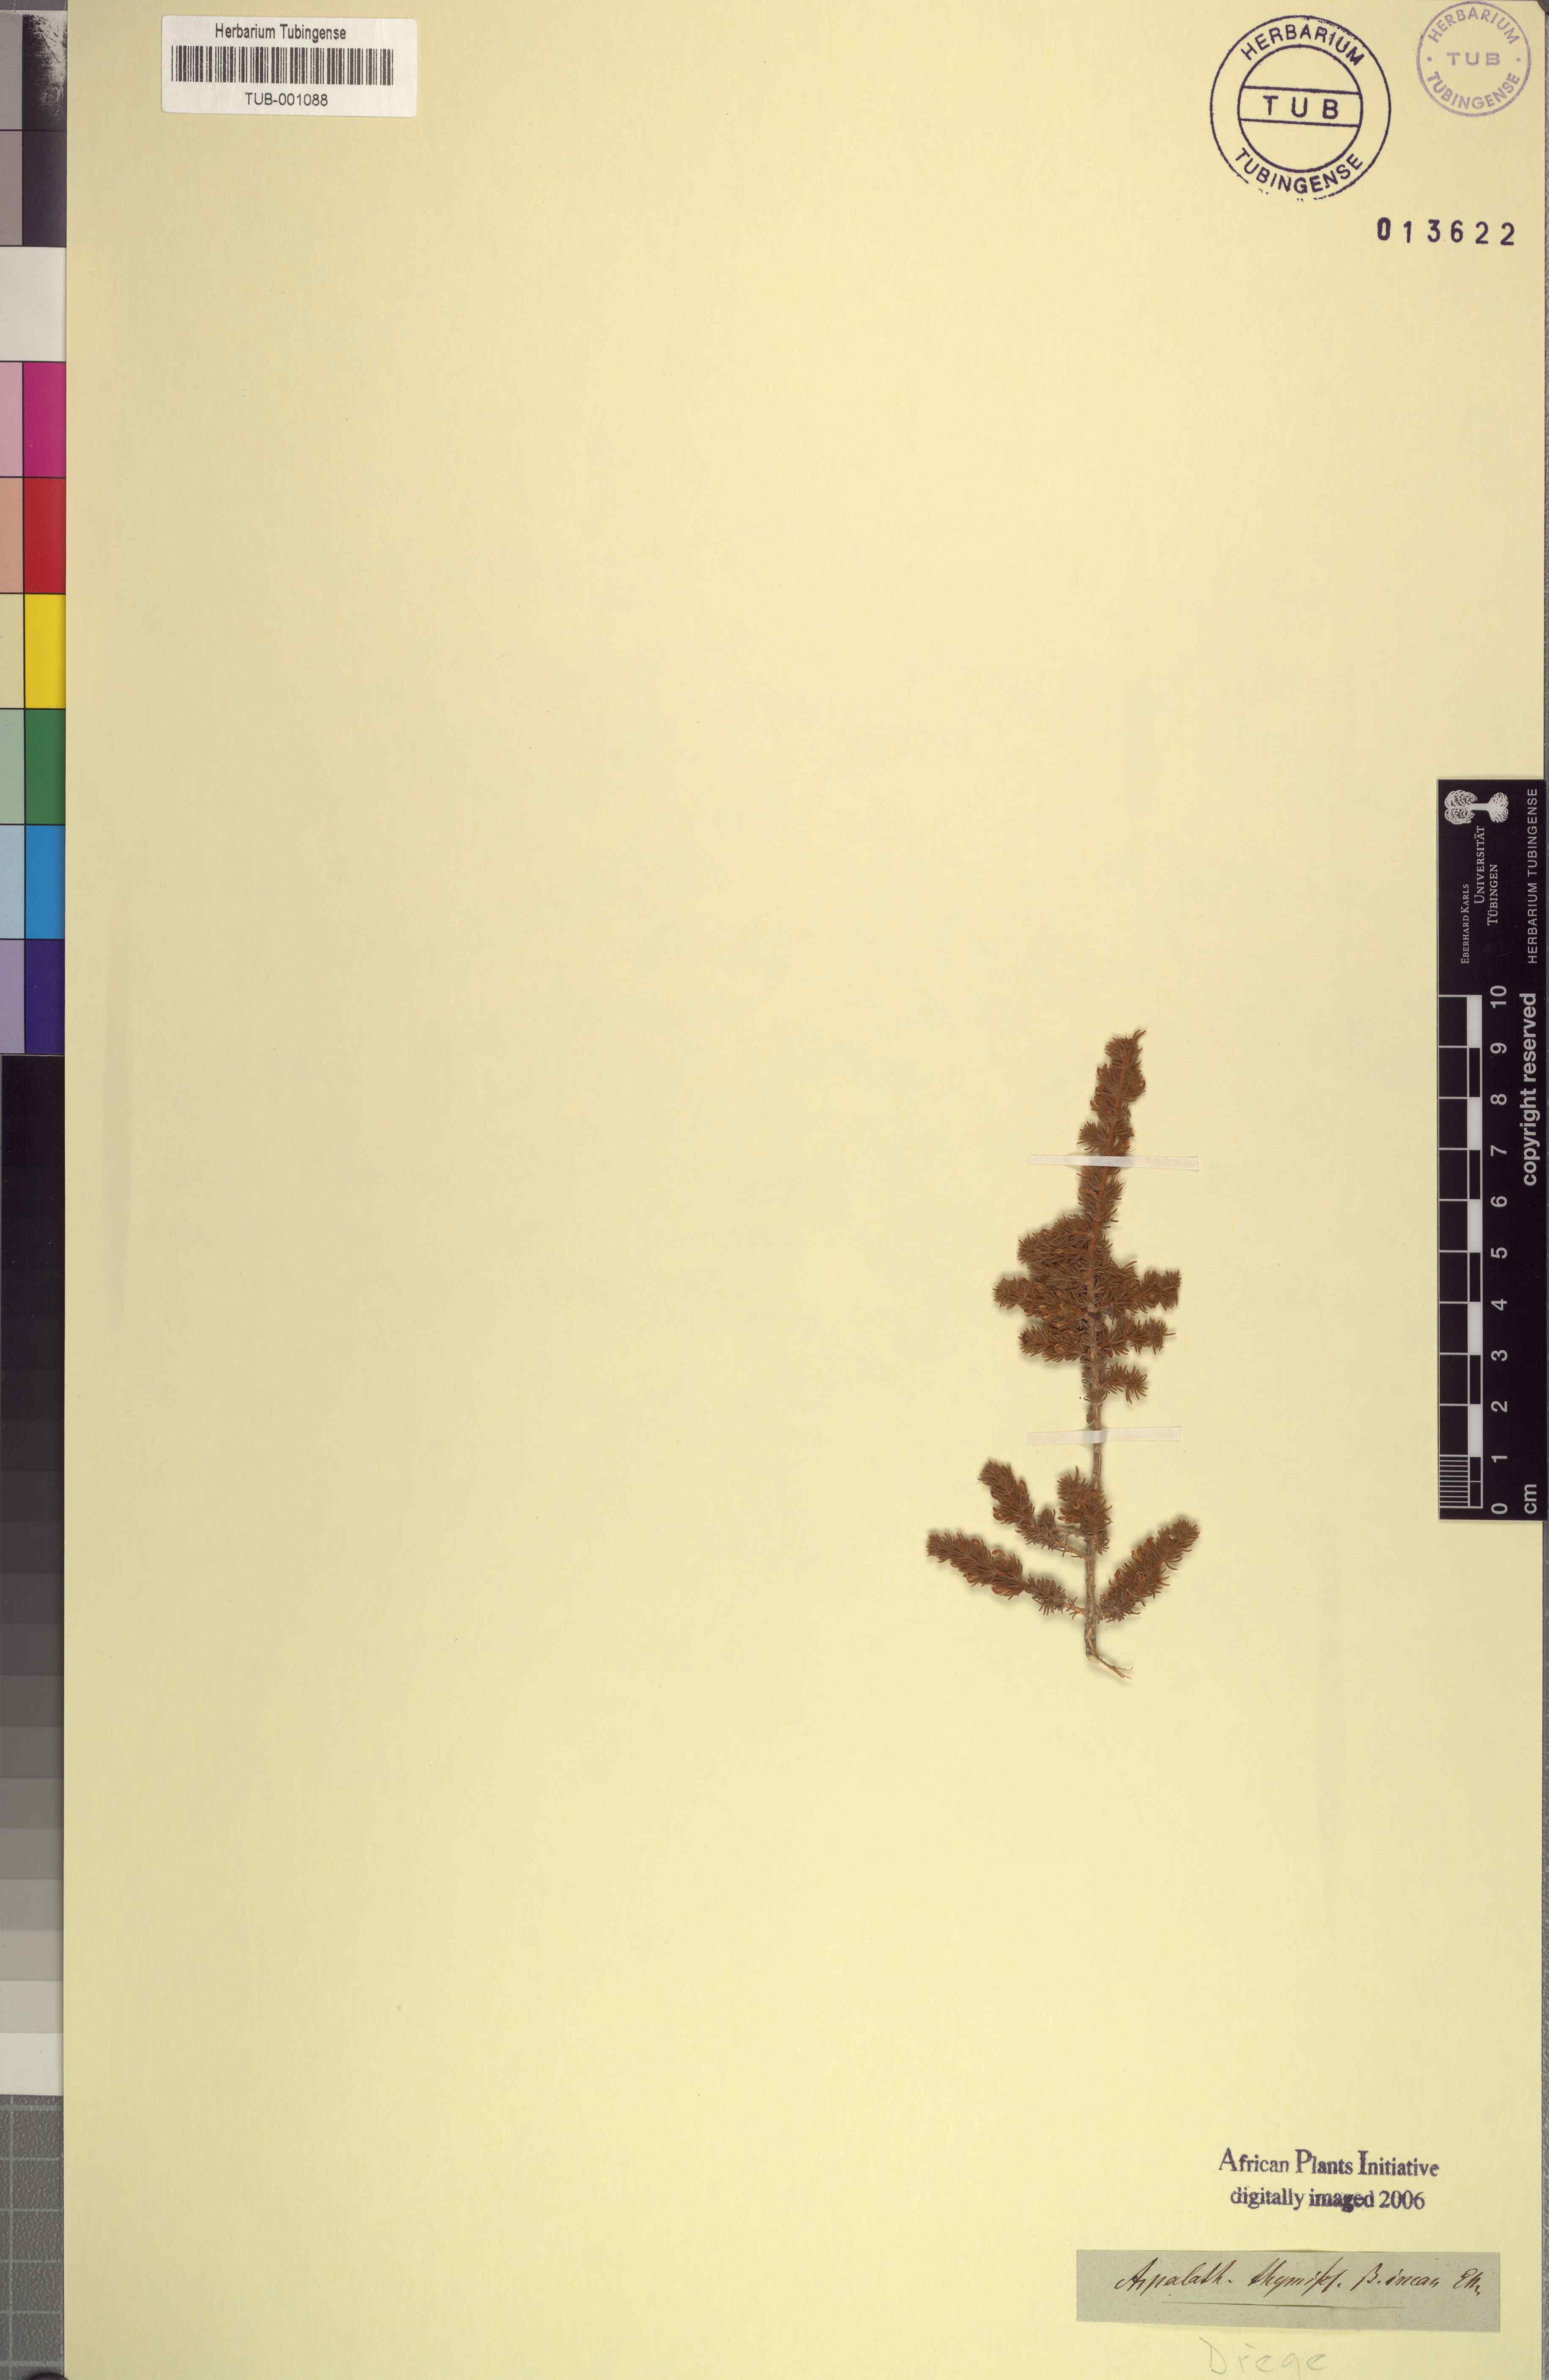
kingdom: Plantae
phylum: Tracheophyta
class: Magnoliopsida
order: Fabales
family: Fabaceae
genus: Aspalathus
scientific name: Aspalathus cymbiformis
